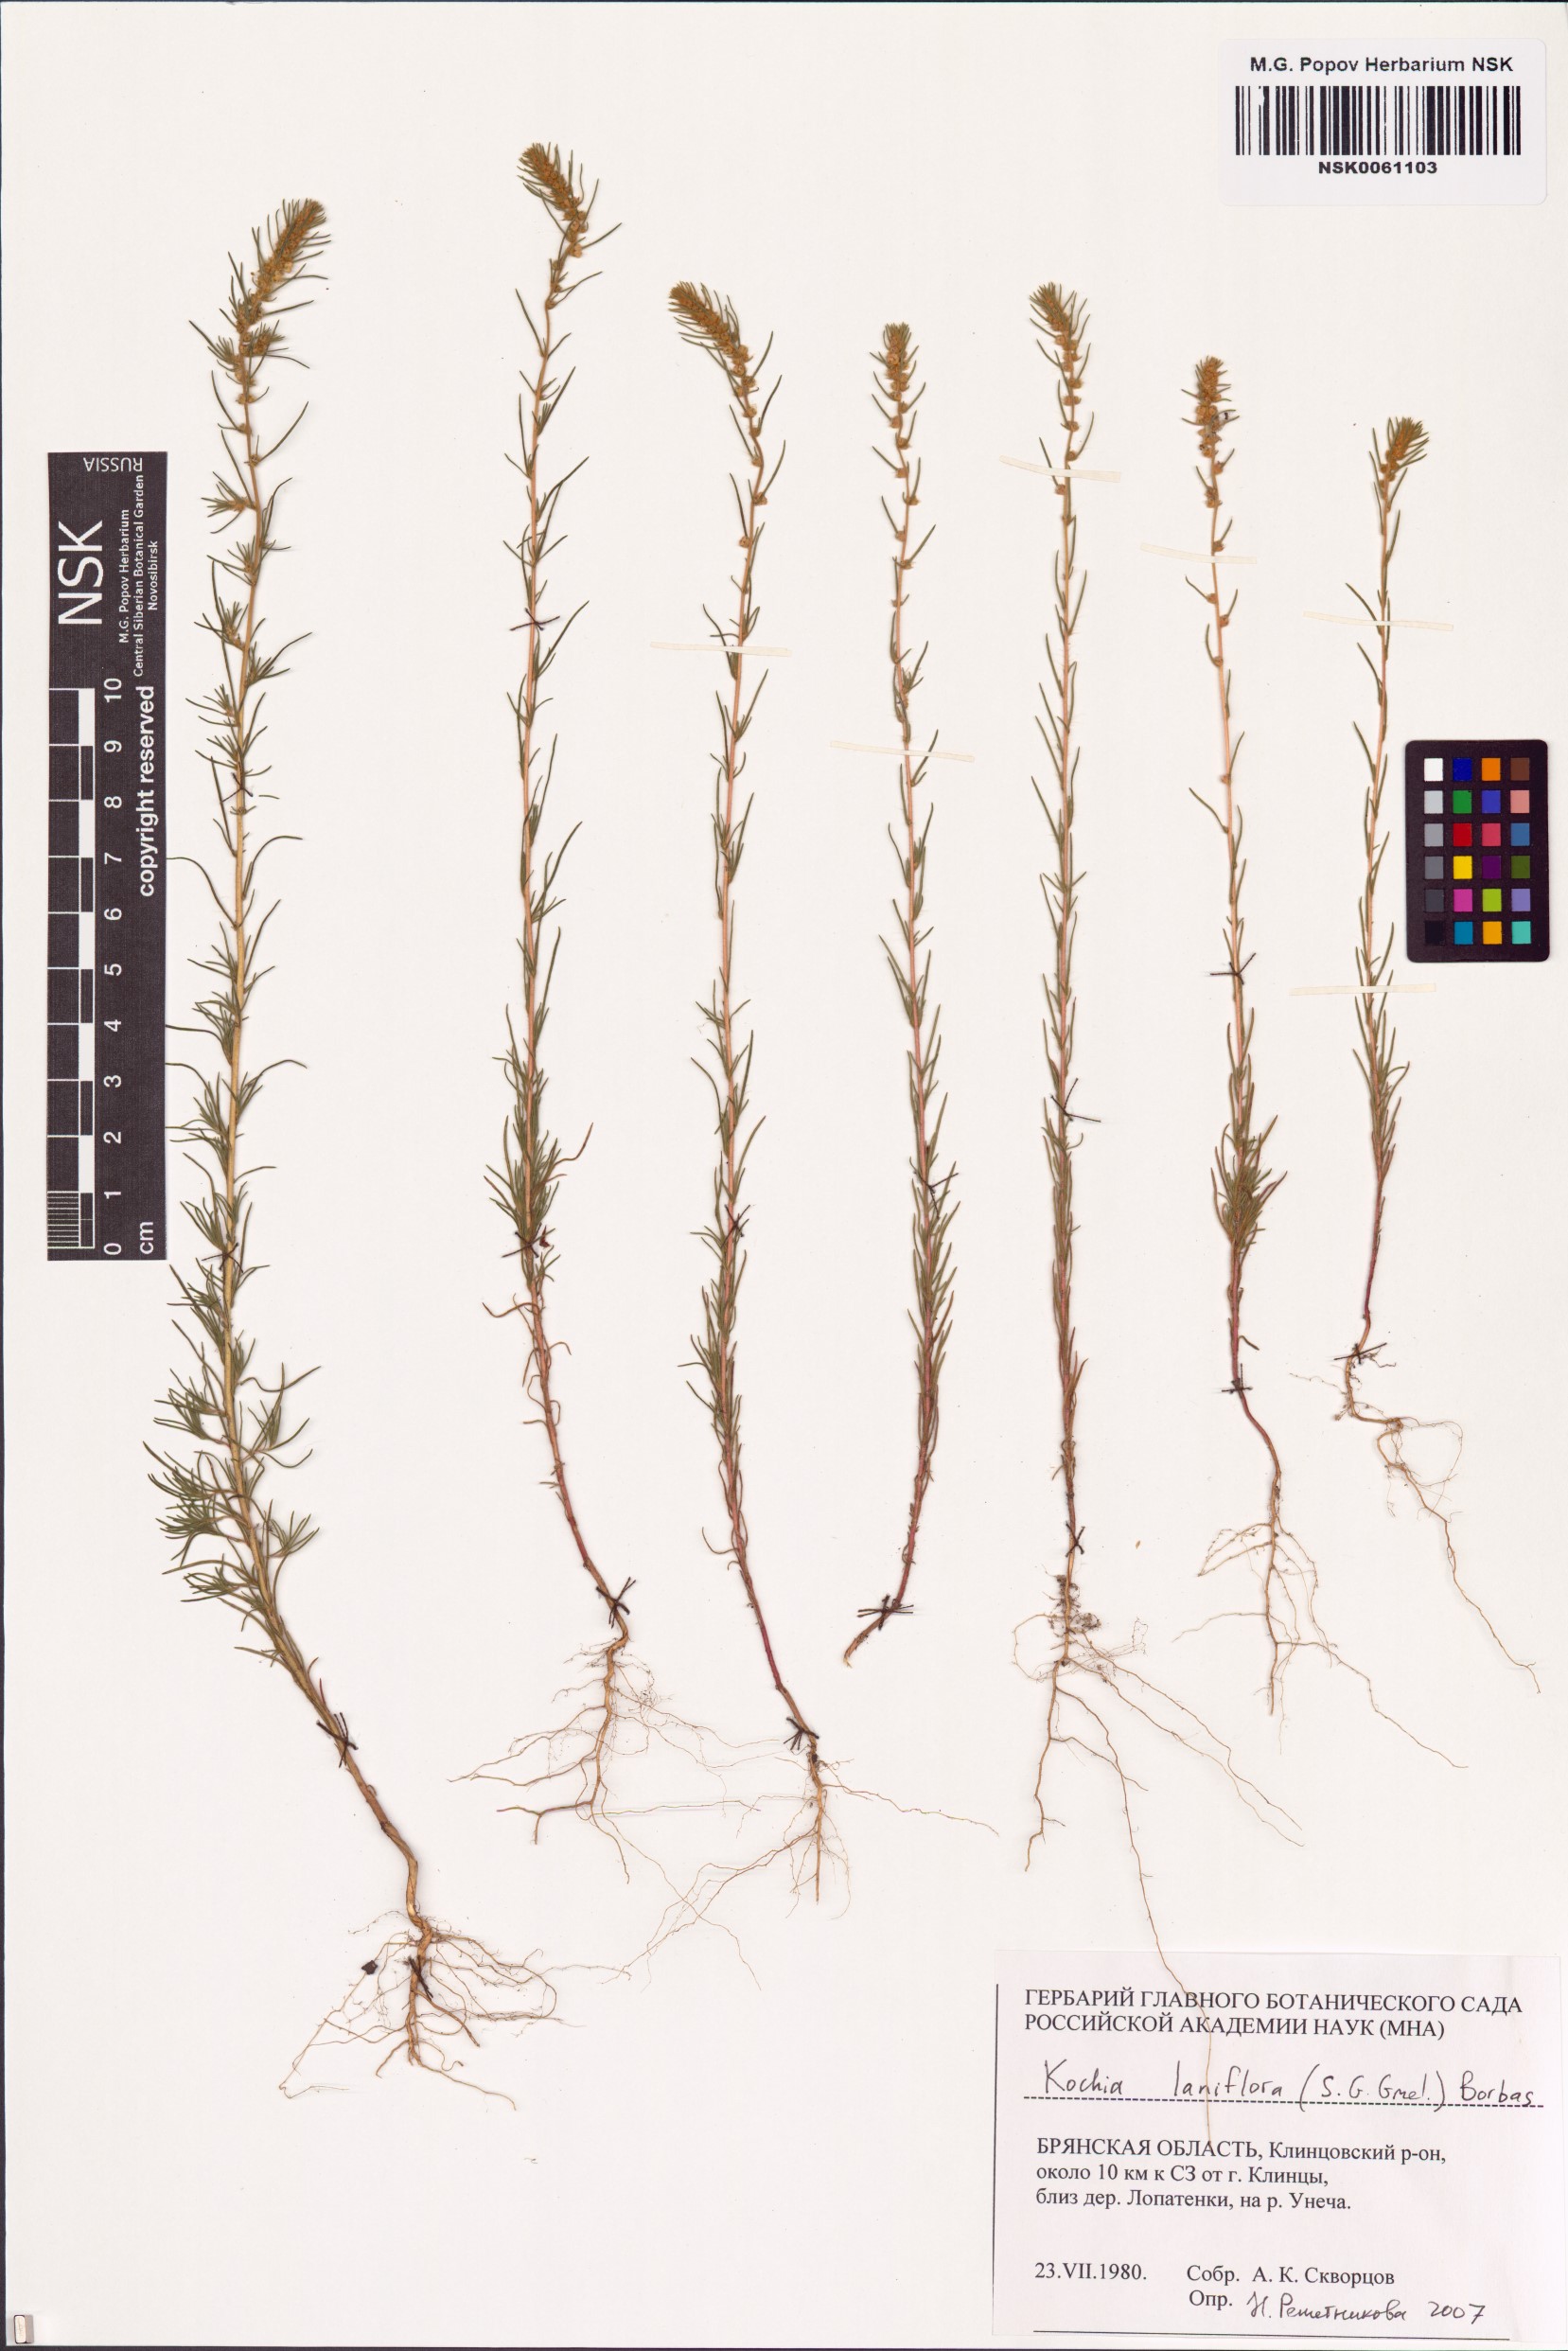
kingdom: Plantae
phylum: Tracheophyta
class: Magnoliopsida
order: Caryophyllales
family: Amaranthaceae
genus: Bassia
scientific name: Bassia laniflora
